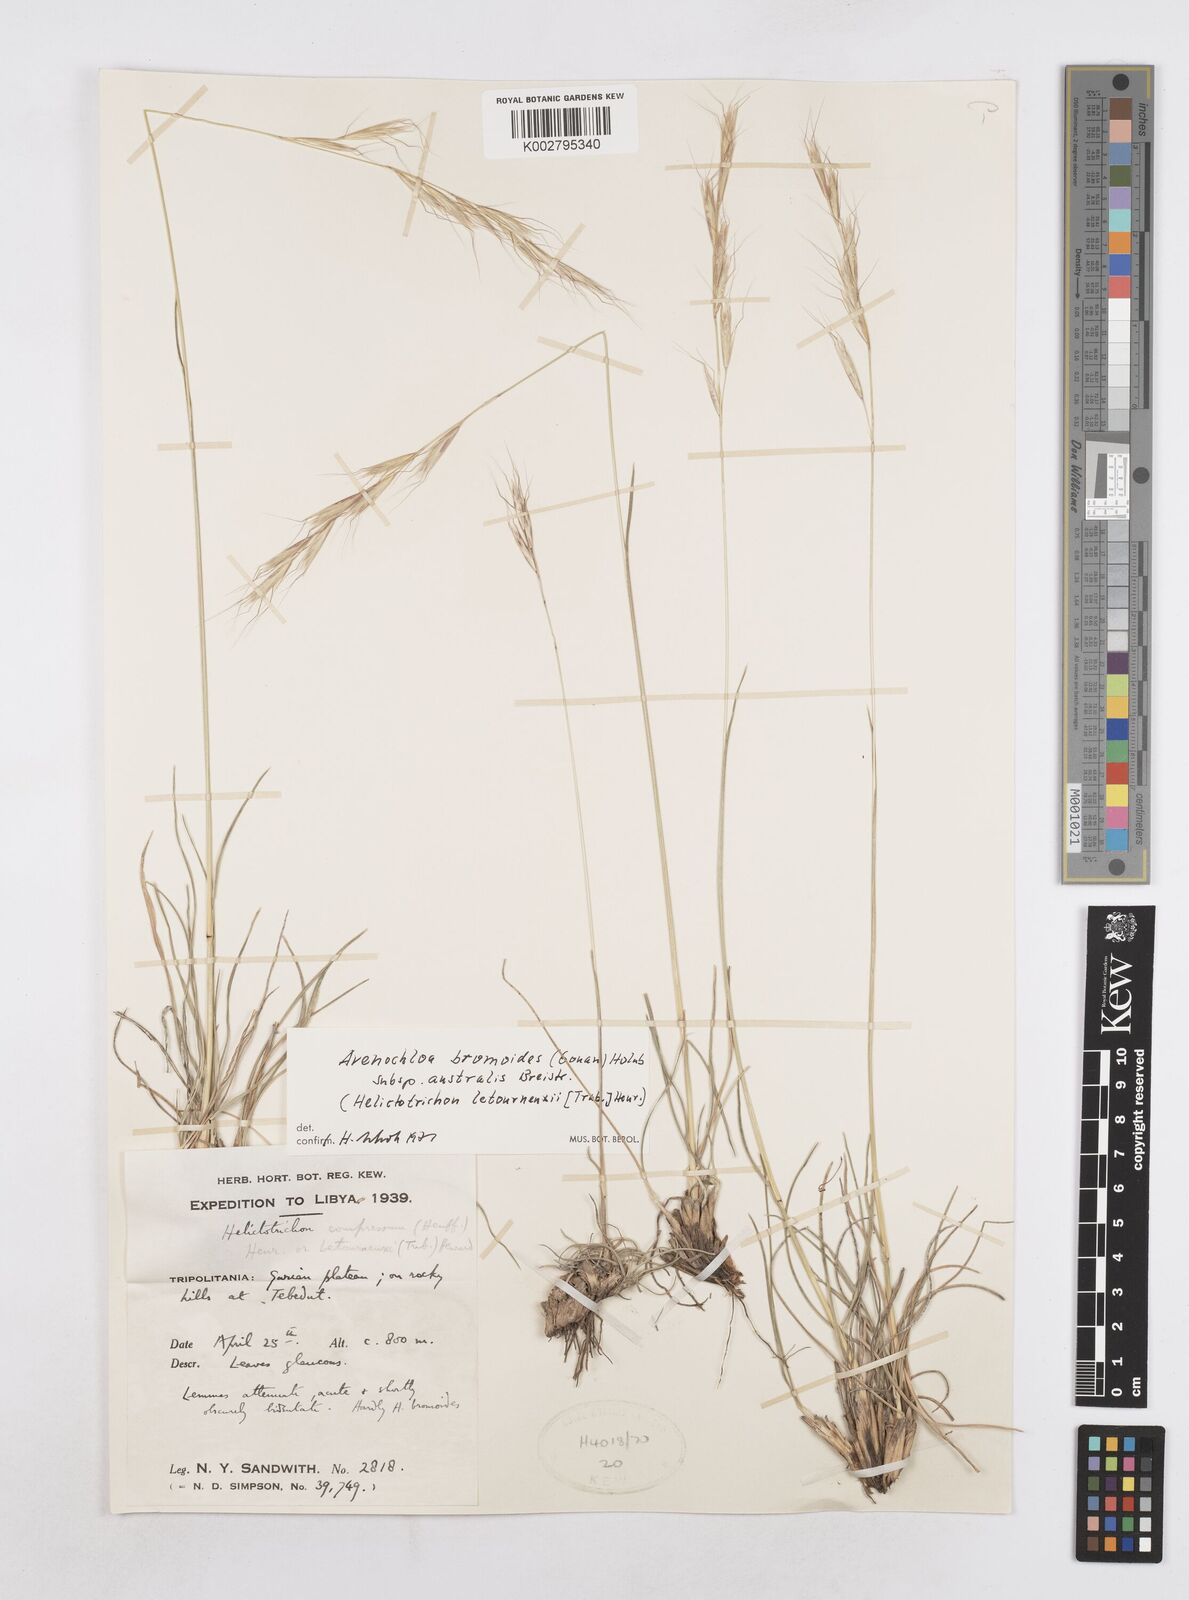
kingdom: Plantae
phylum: Tracheophyta
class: Liliopsida
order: Poales
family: Poaceae
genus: Helictochloa
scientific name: Helictochloa bromoides
